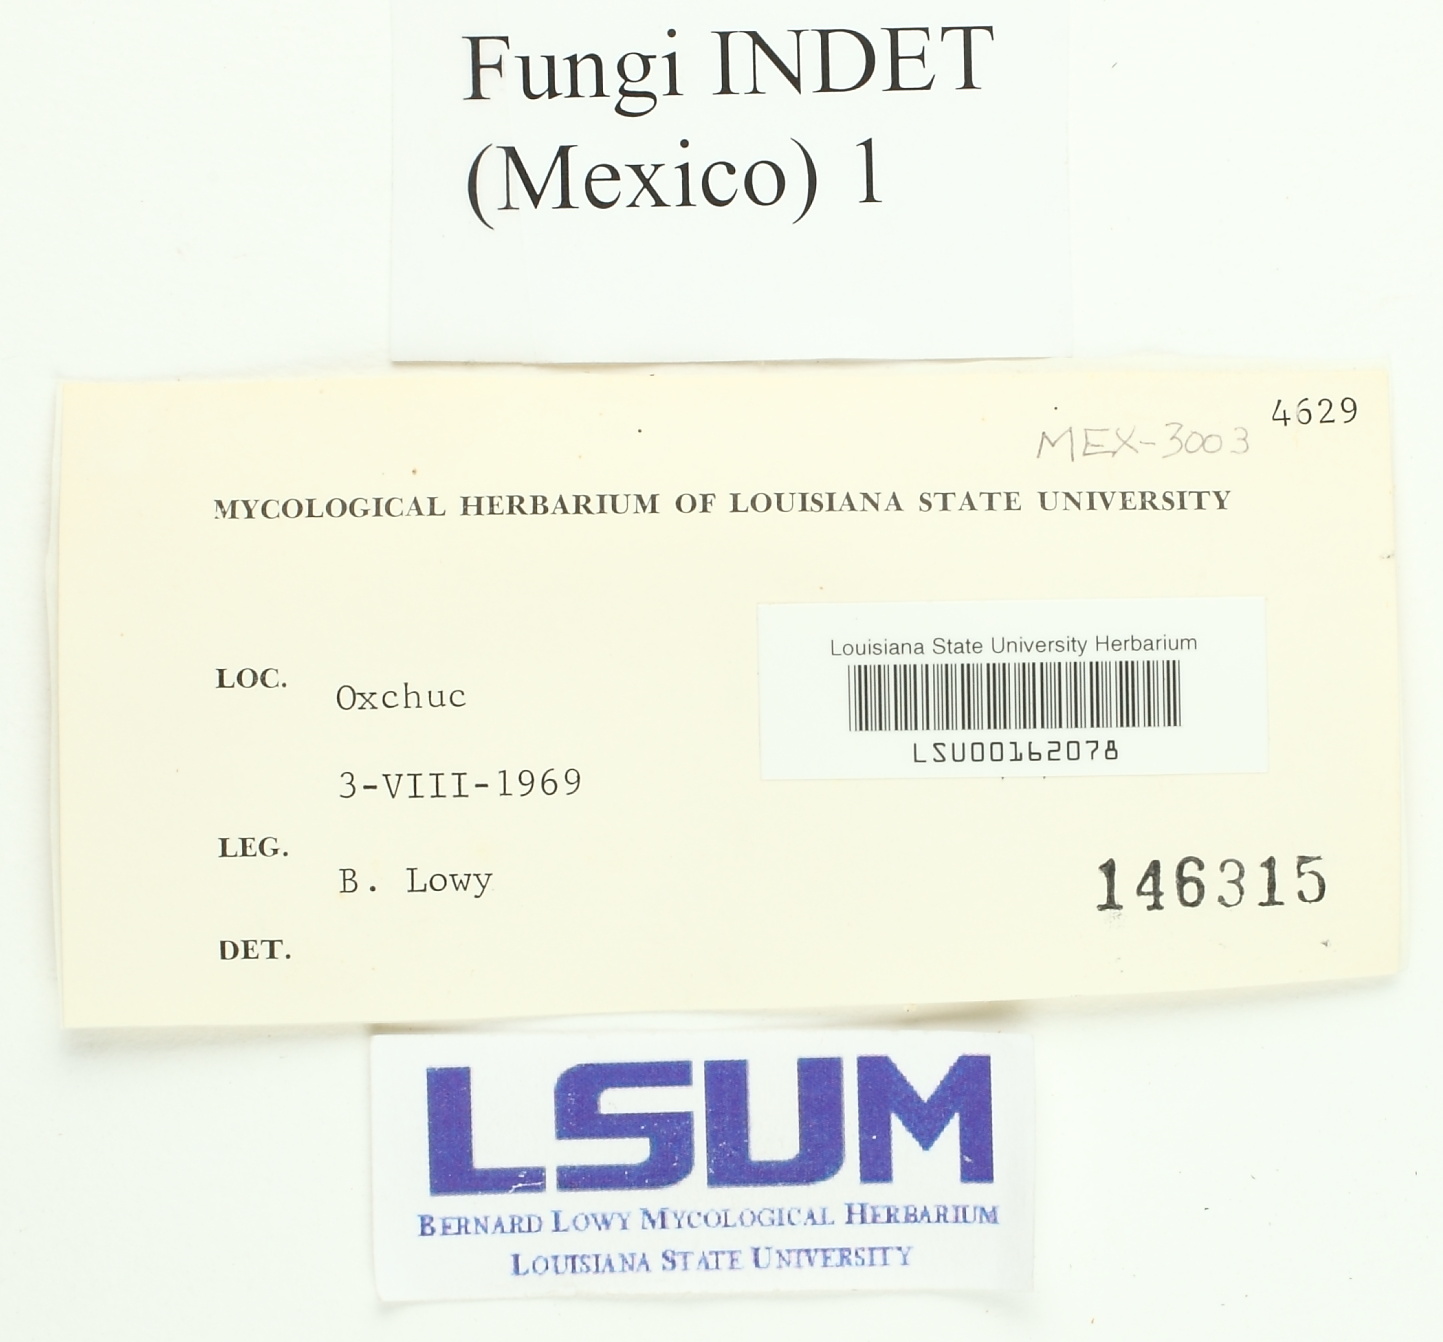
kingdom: Fungi
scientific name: Fungi
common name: Fungi
